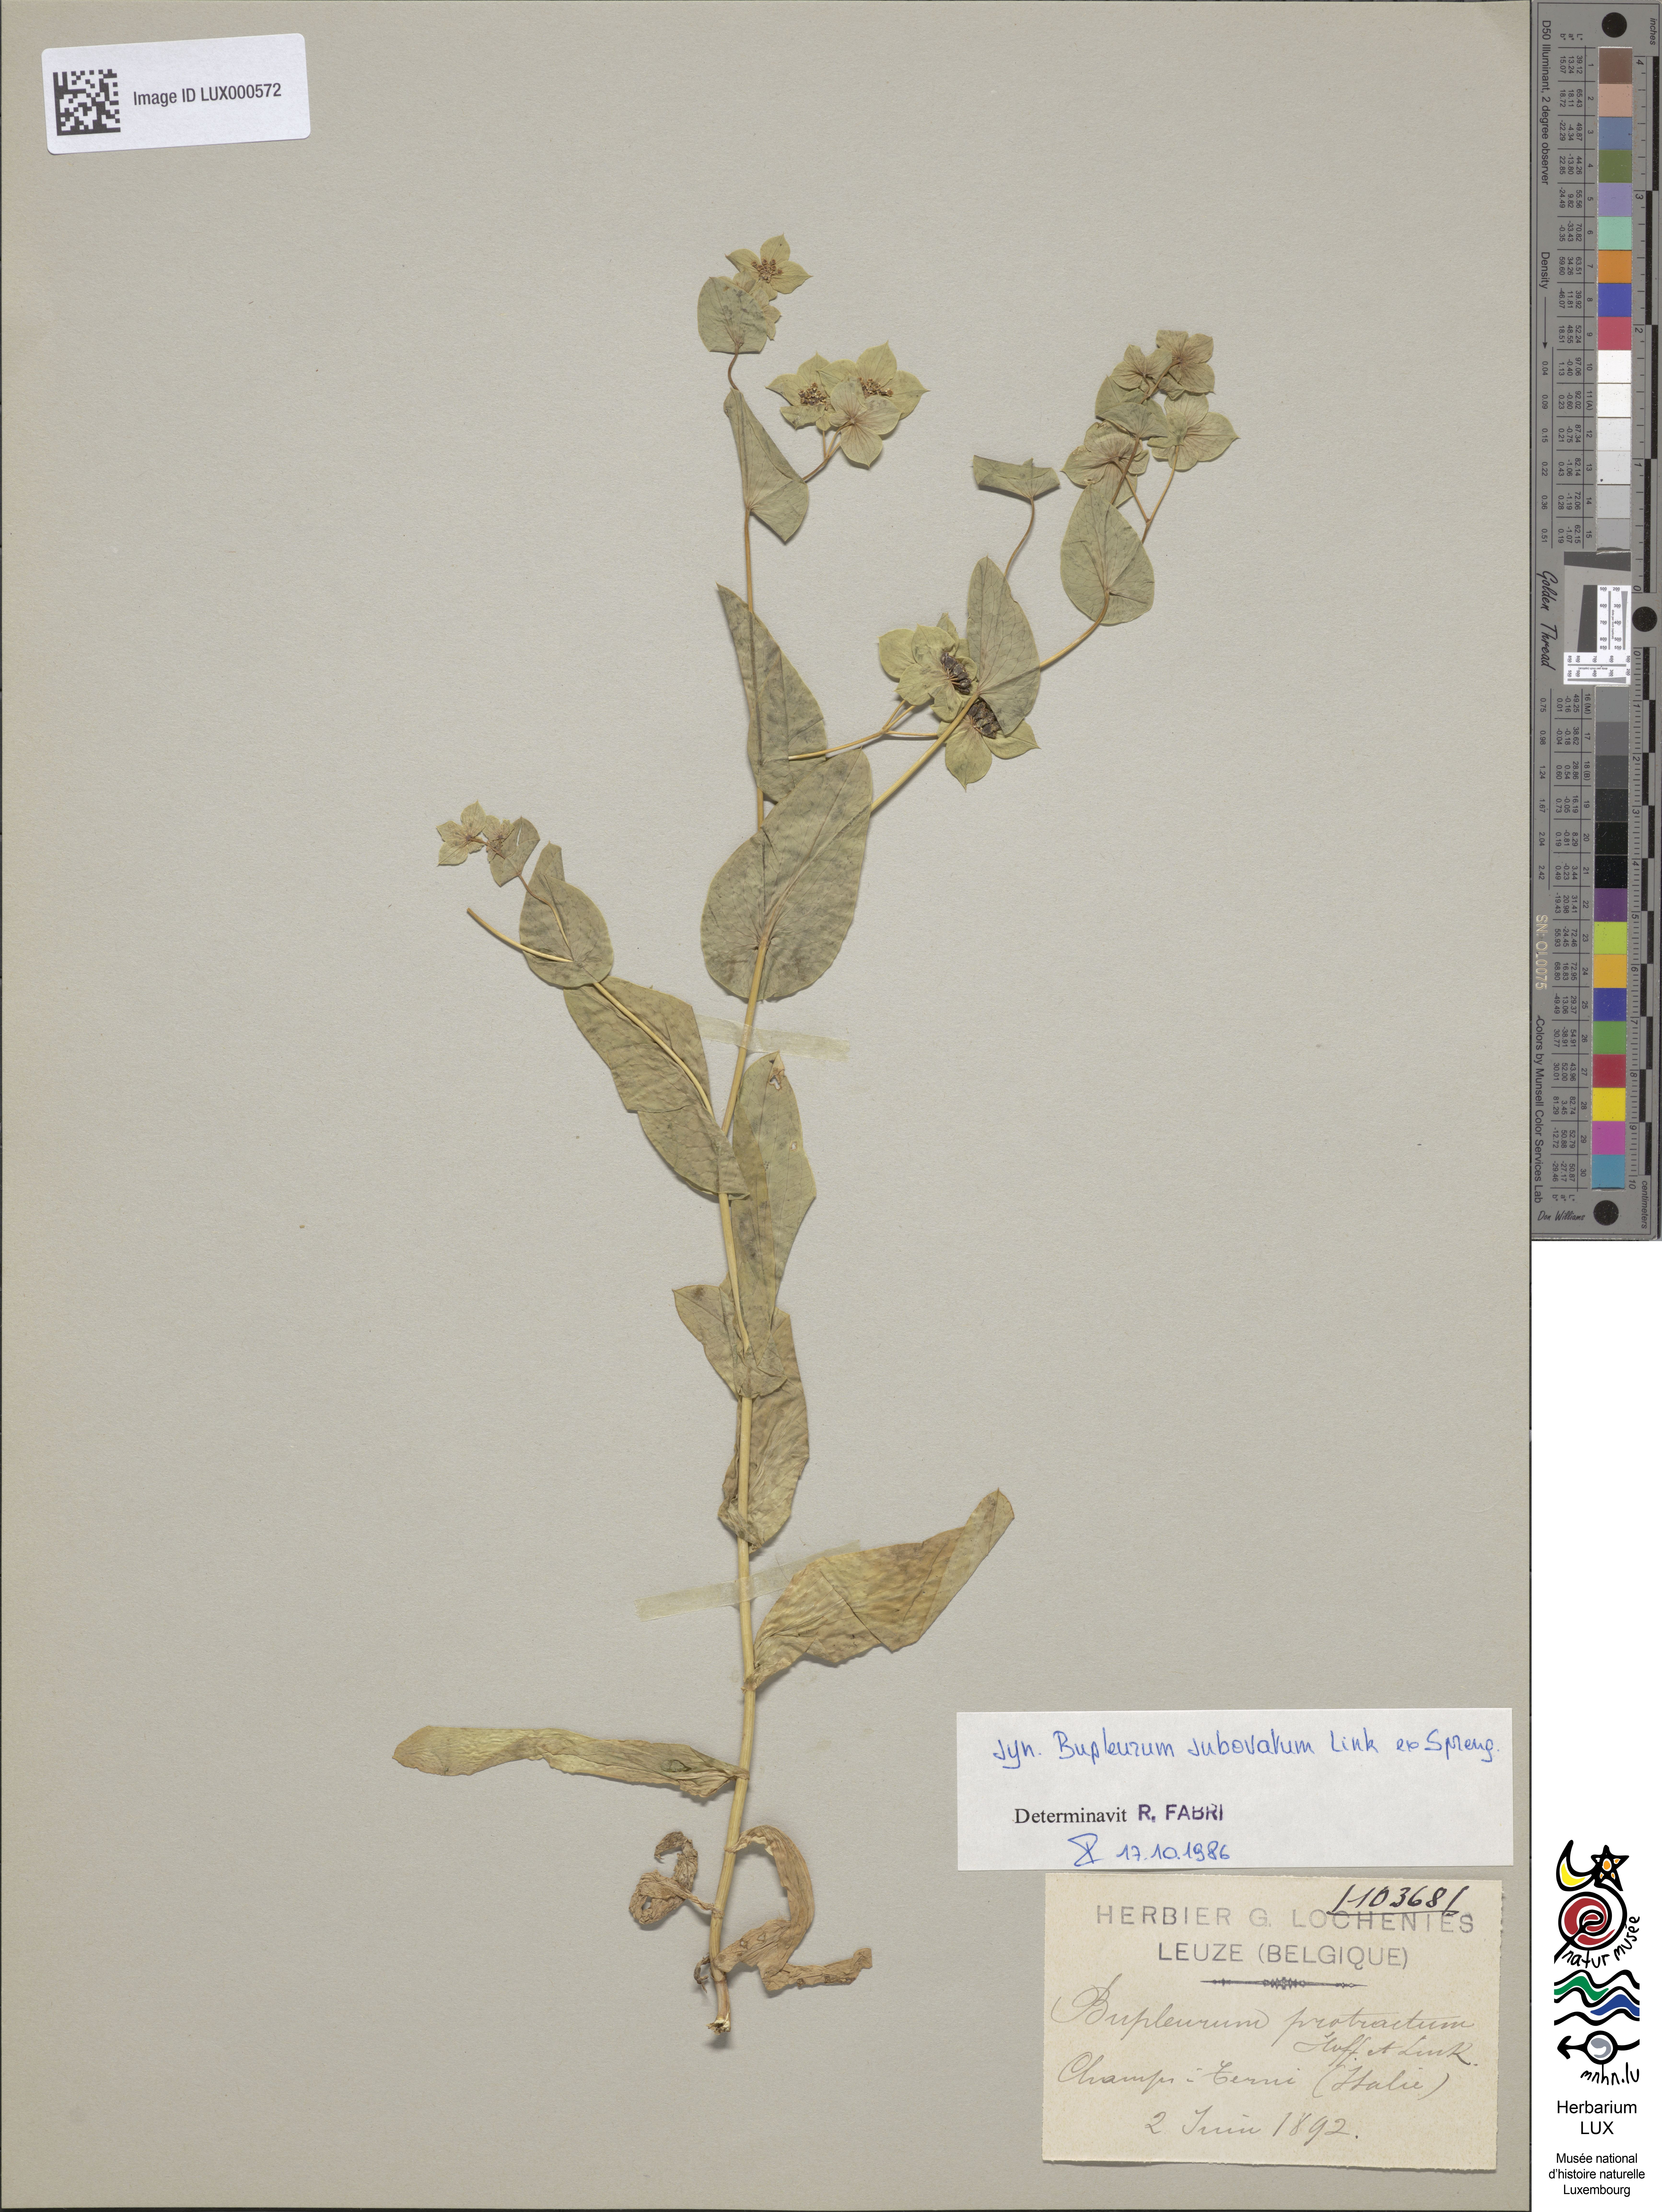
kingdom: Plantae
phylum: Tracheophyta
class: Magnoliopsida
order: Apiales
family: Apiaceae
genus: Bupleurum
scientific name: Bupleurum lancifolium
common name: False thorow-wax
